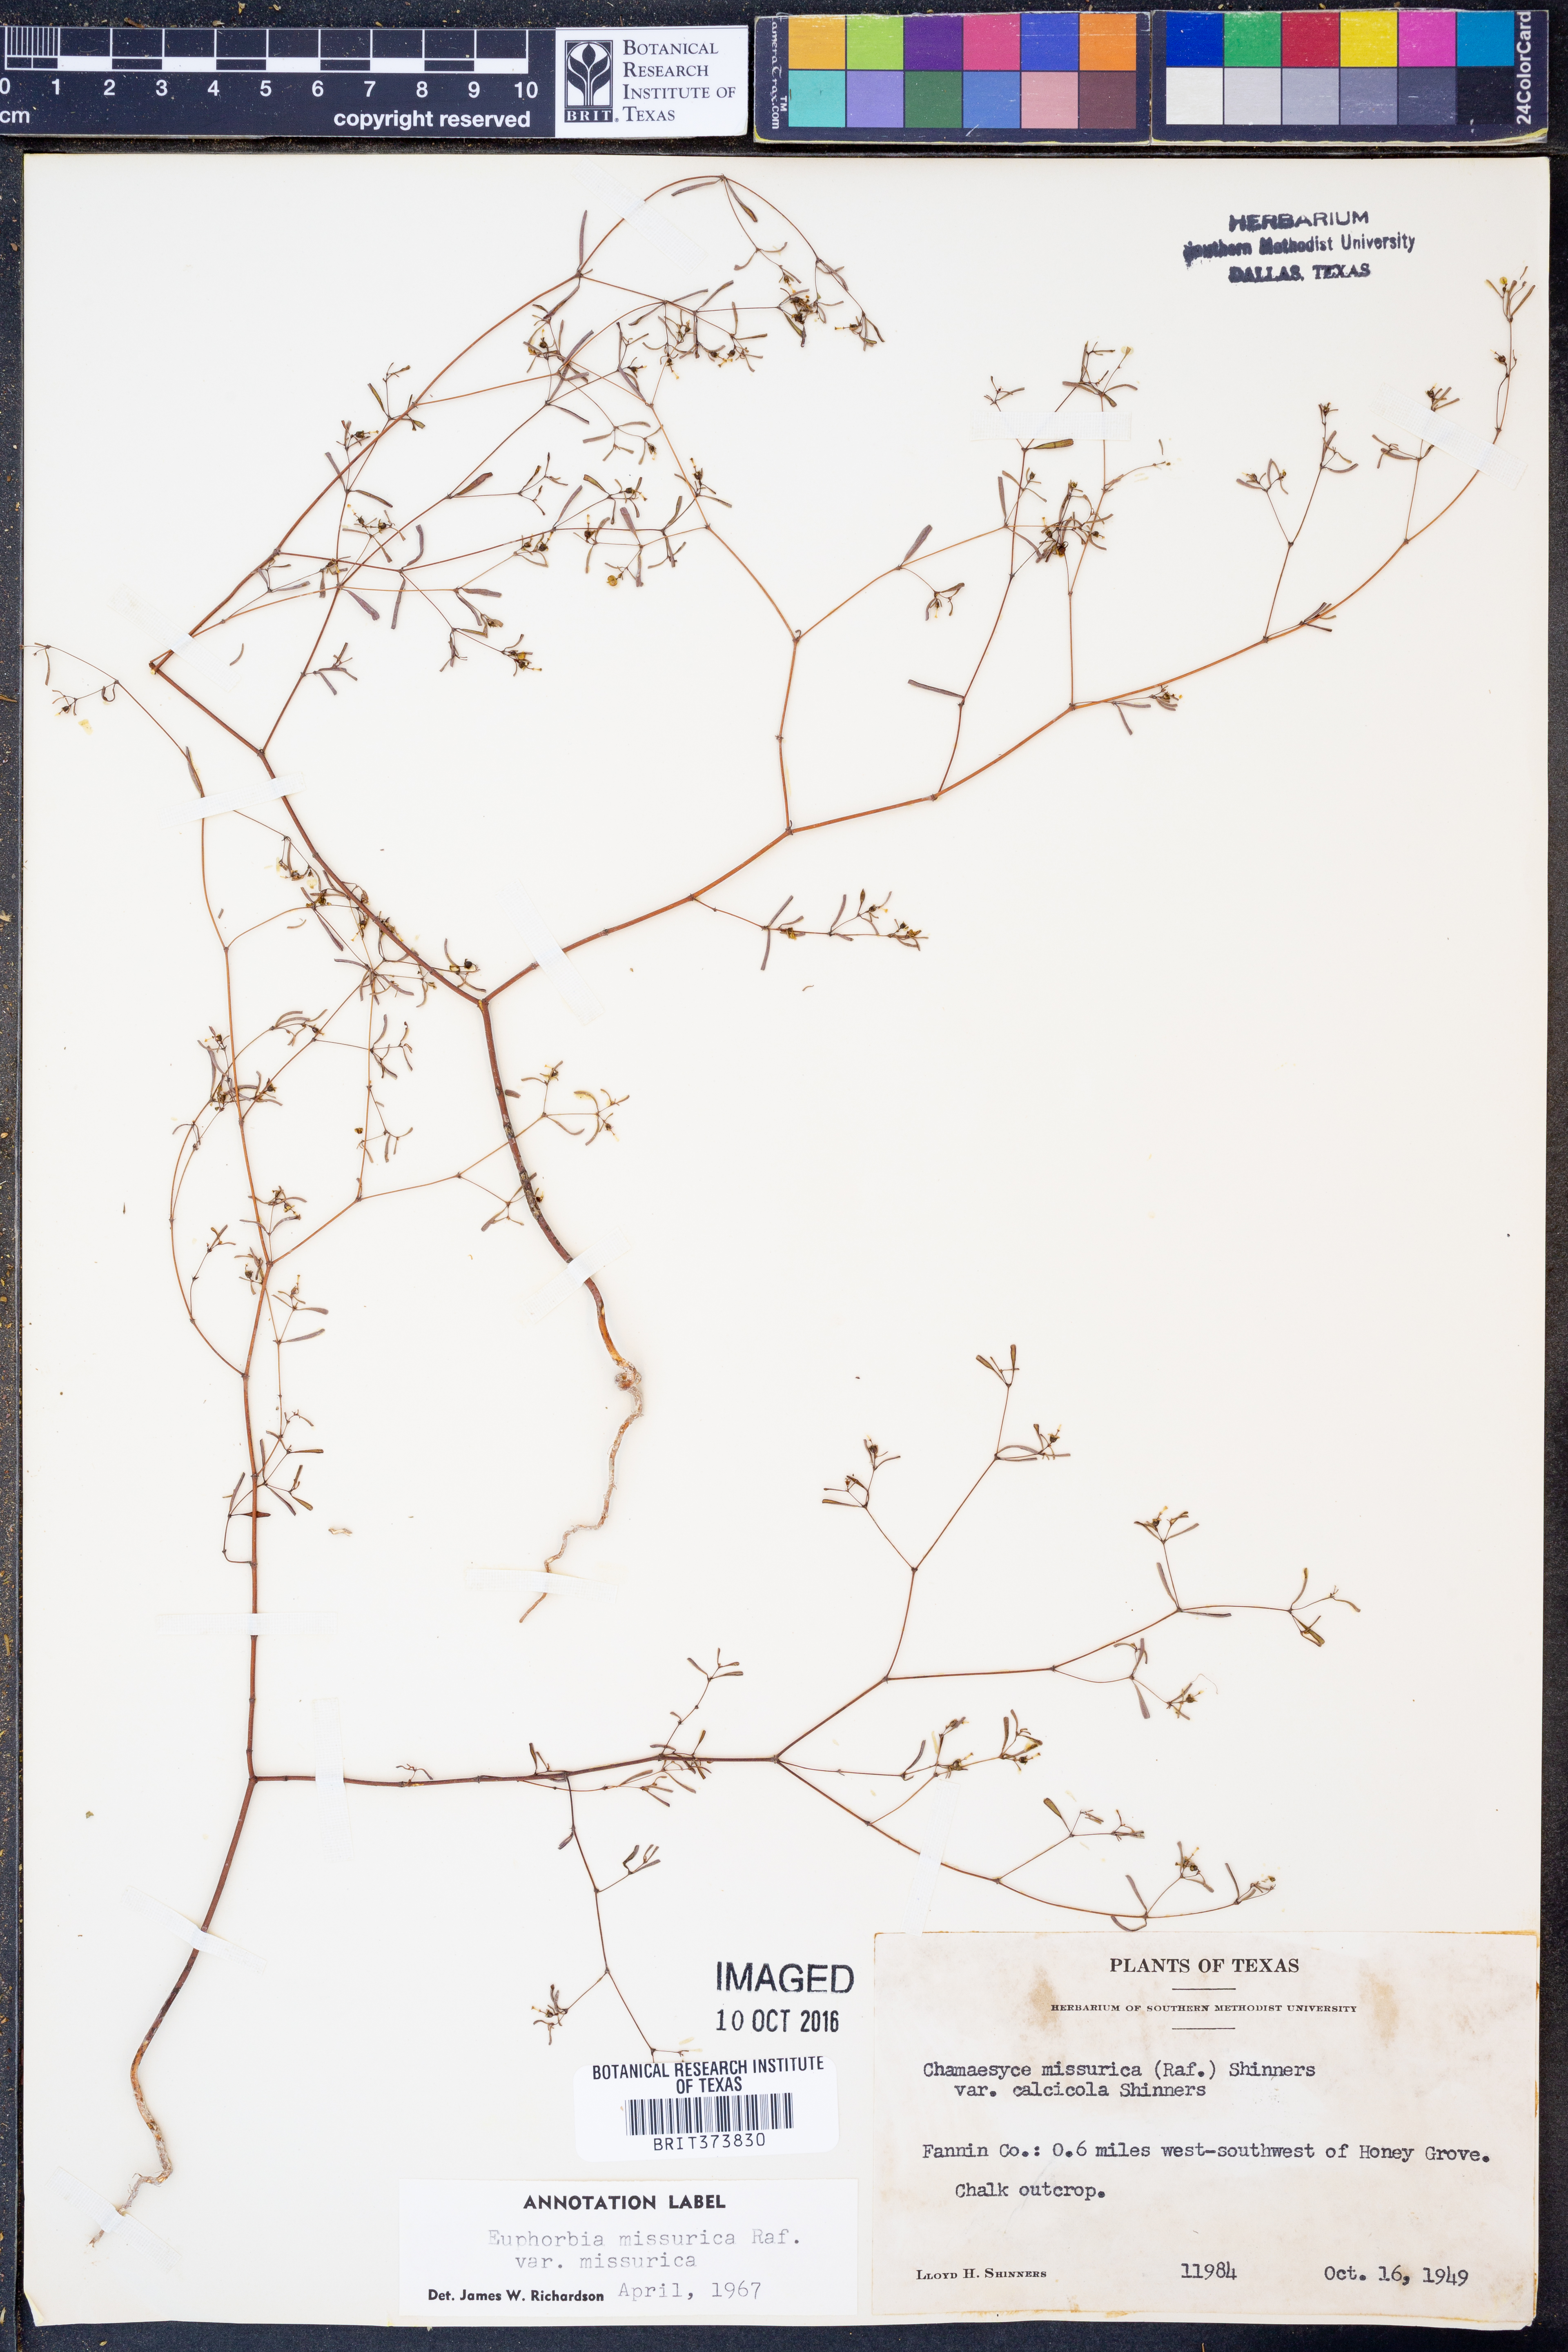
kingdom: Plantae
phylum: Tracheophyta
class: Magnoliopsida
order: Malpighiales
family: Euphorbiaceae
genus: Euphorbia
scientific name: Euphorbia missurica
